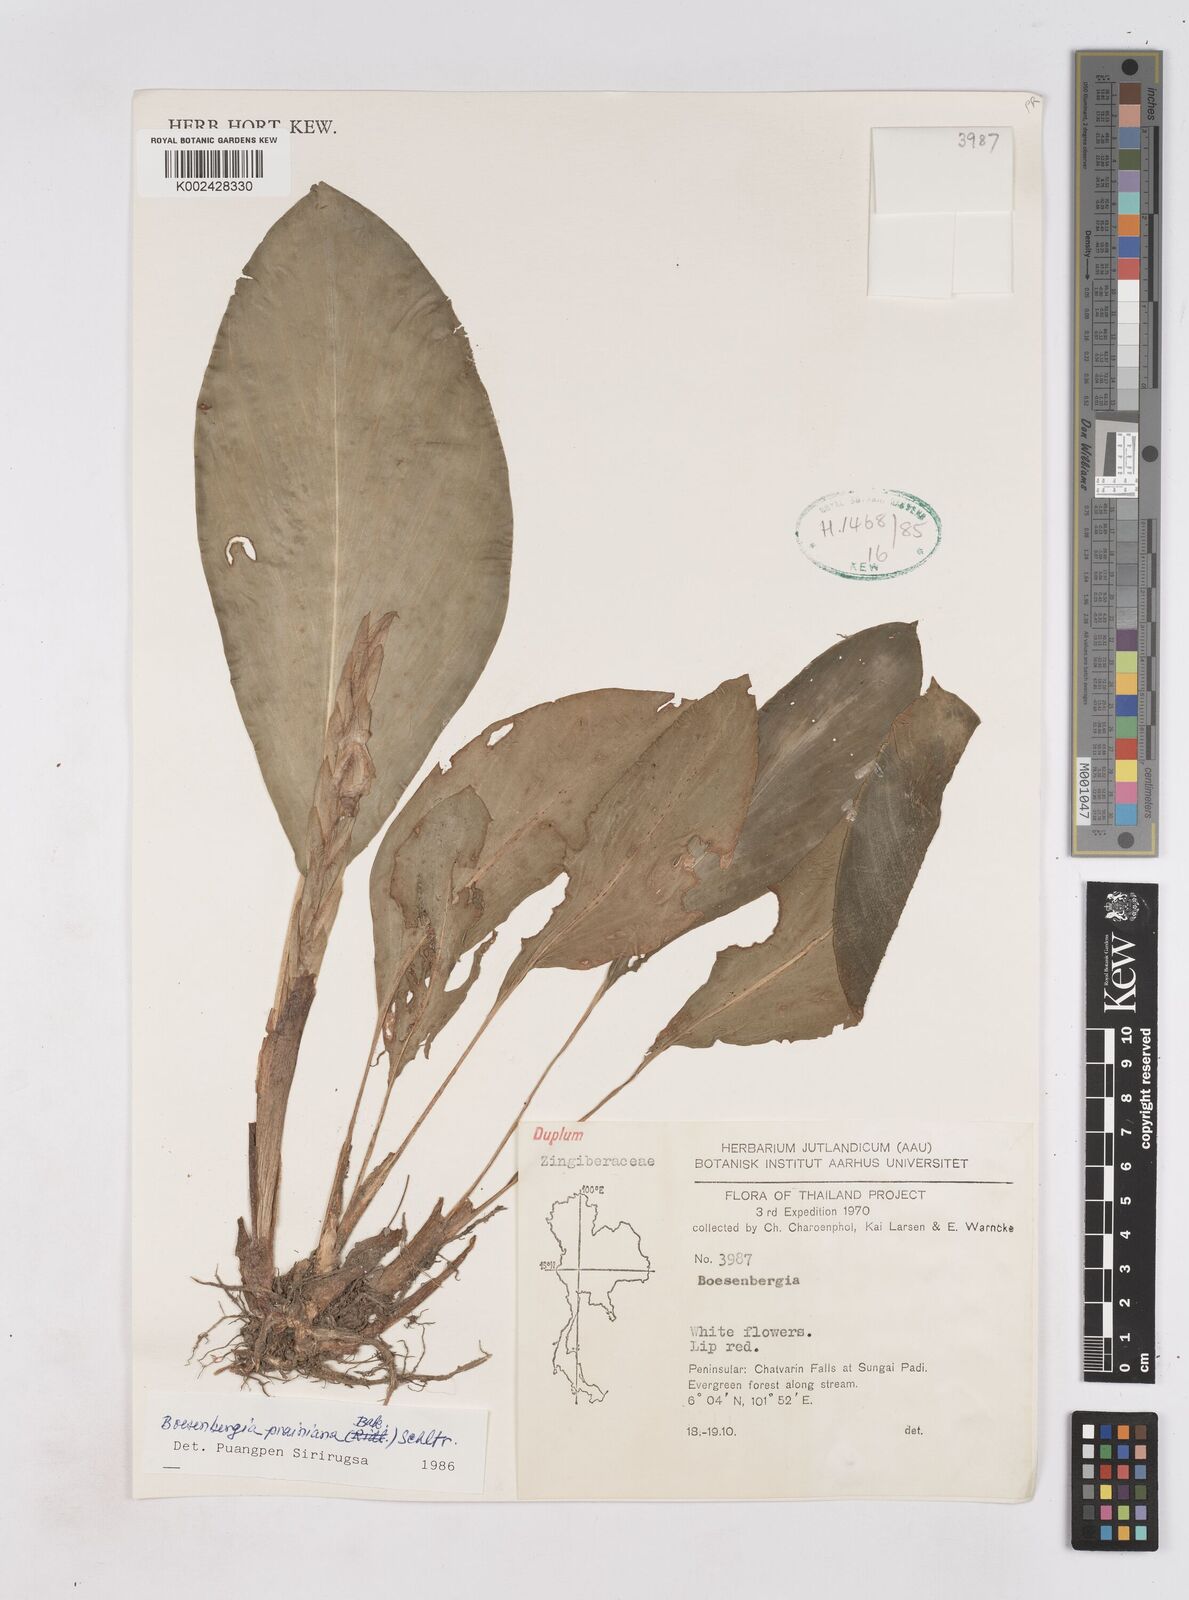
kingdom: Plantae
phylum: Tracheophyta
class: Liliopsida
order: Zingiberales
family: Zingiberaceae
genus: Boesenbergia
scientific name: Boesenbergia prainiana
